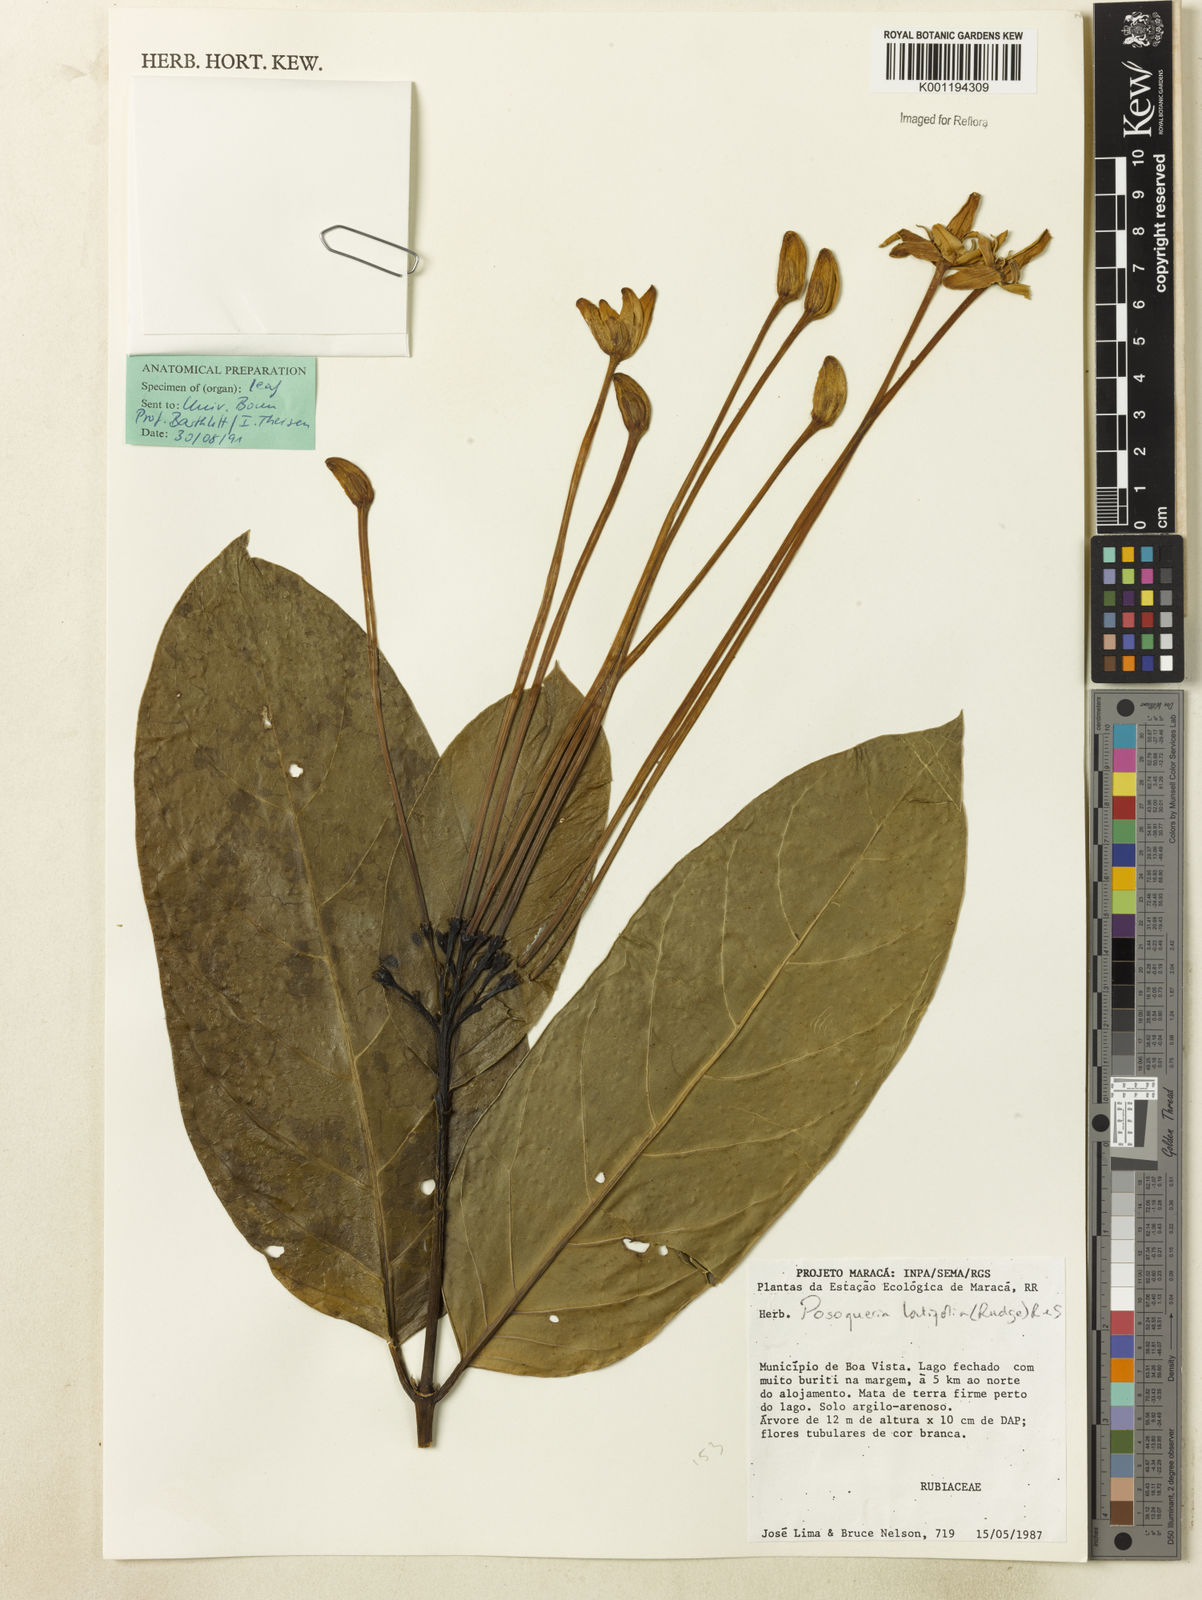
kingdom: Plantae
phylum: Tracheophyta
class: Magnoliopsida
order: Gentianales
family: Rubiaceae
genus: Posoqueria
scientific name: Posoqueria latifolia
